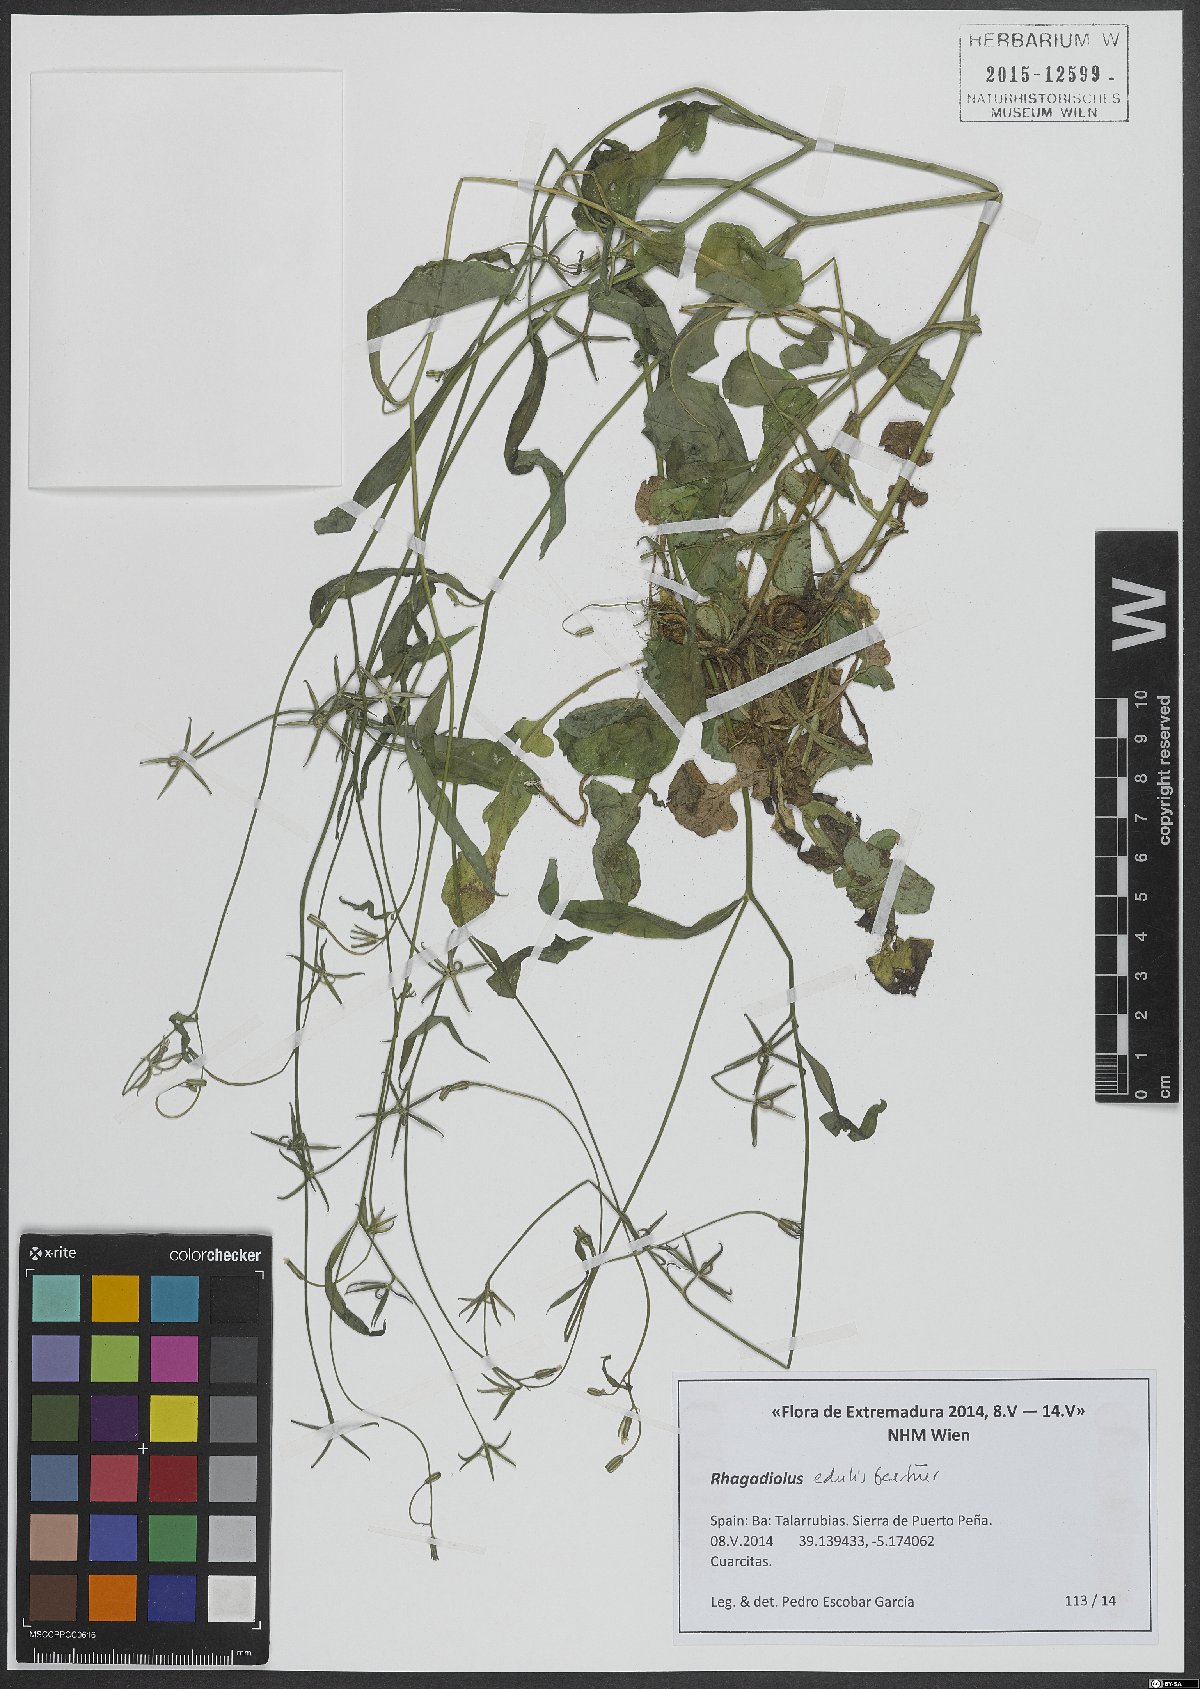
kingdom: Plantae
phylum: Tracheophyta
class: Magnoliopsida
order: Asterales
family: Asteraceae
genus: Rhagadiolus
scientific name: Rhagadiolus edulis
